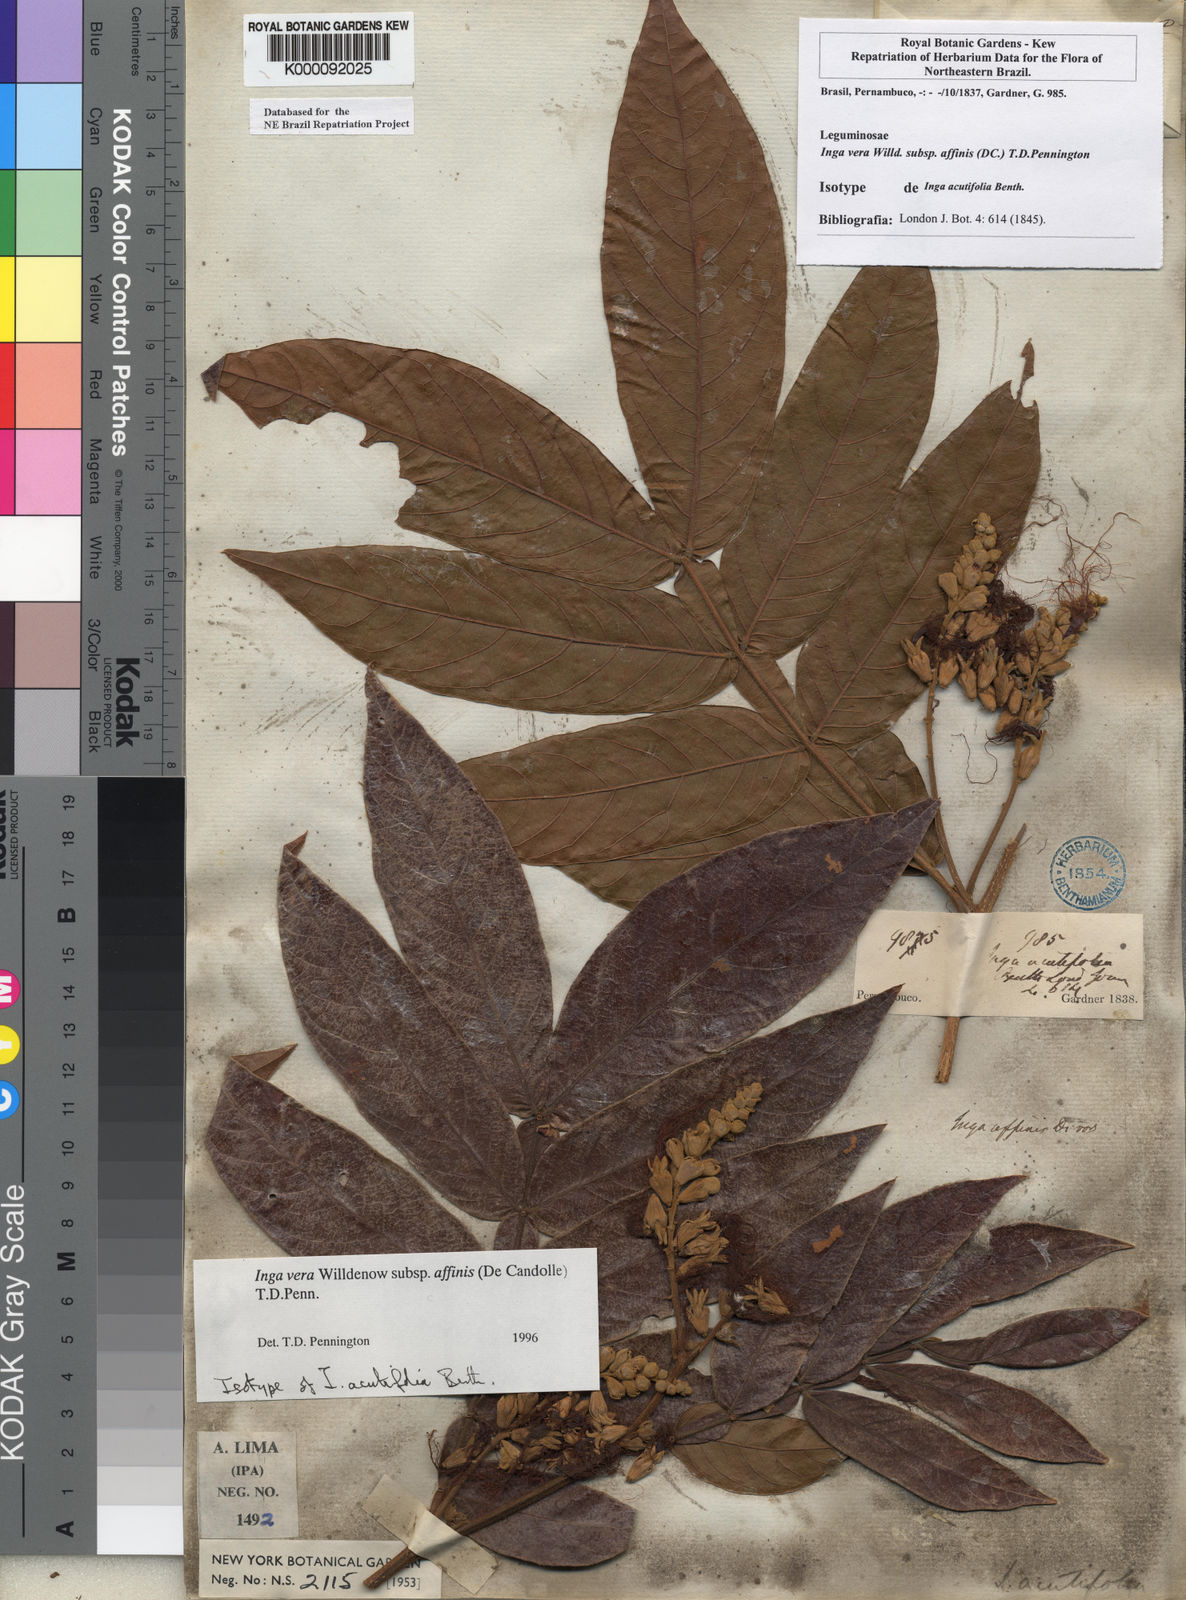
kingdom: Plantae
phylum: Tracheophyta
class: Magnoliopsida
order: Fabales
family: Fabaceae
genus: Inga
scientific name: Inga affinis
